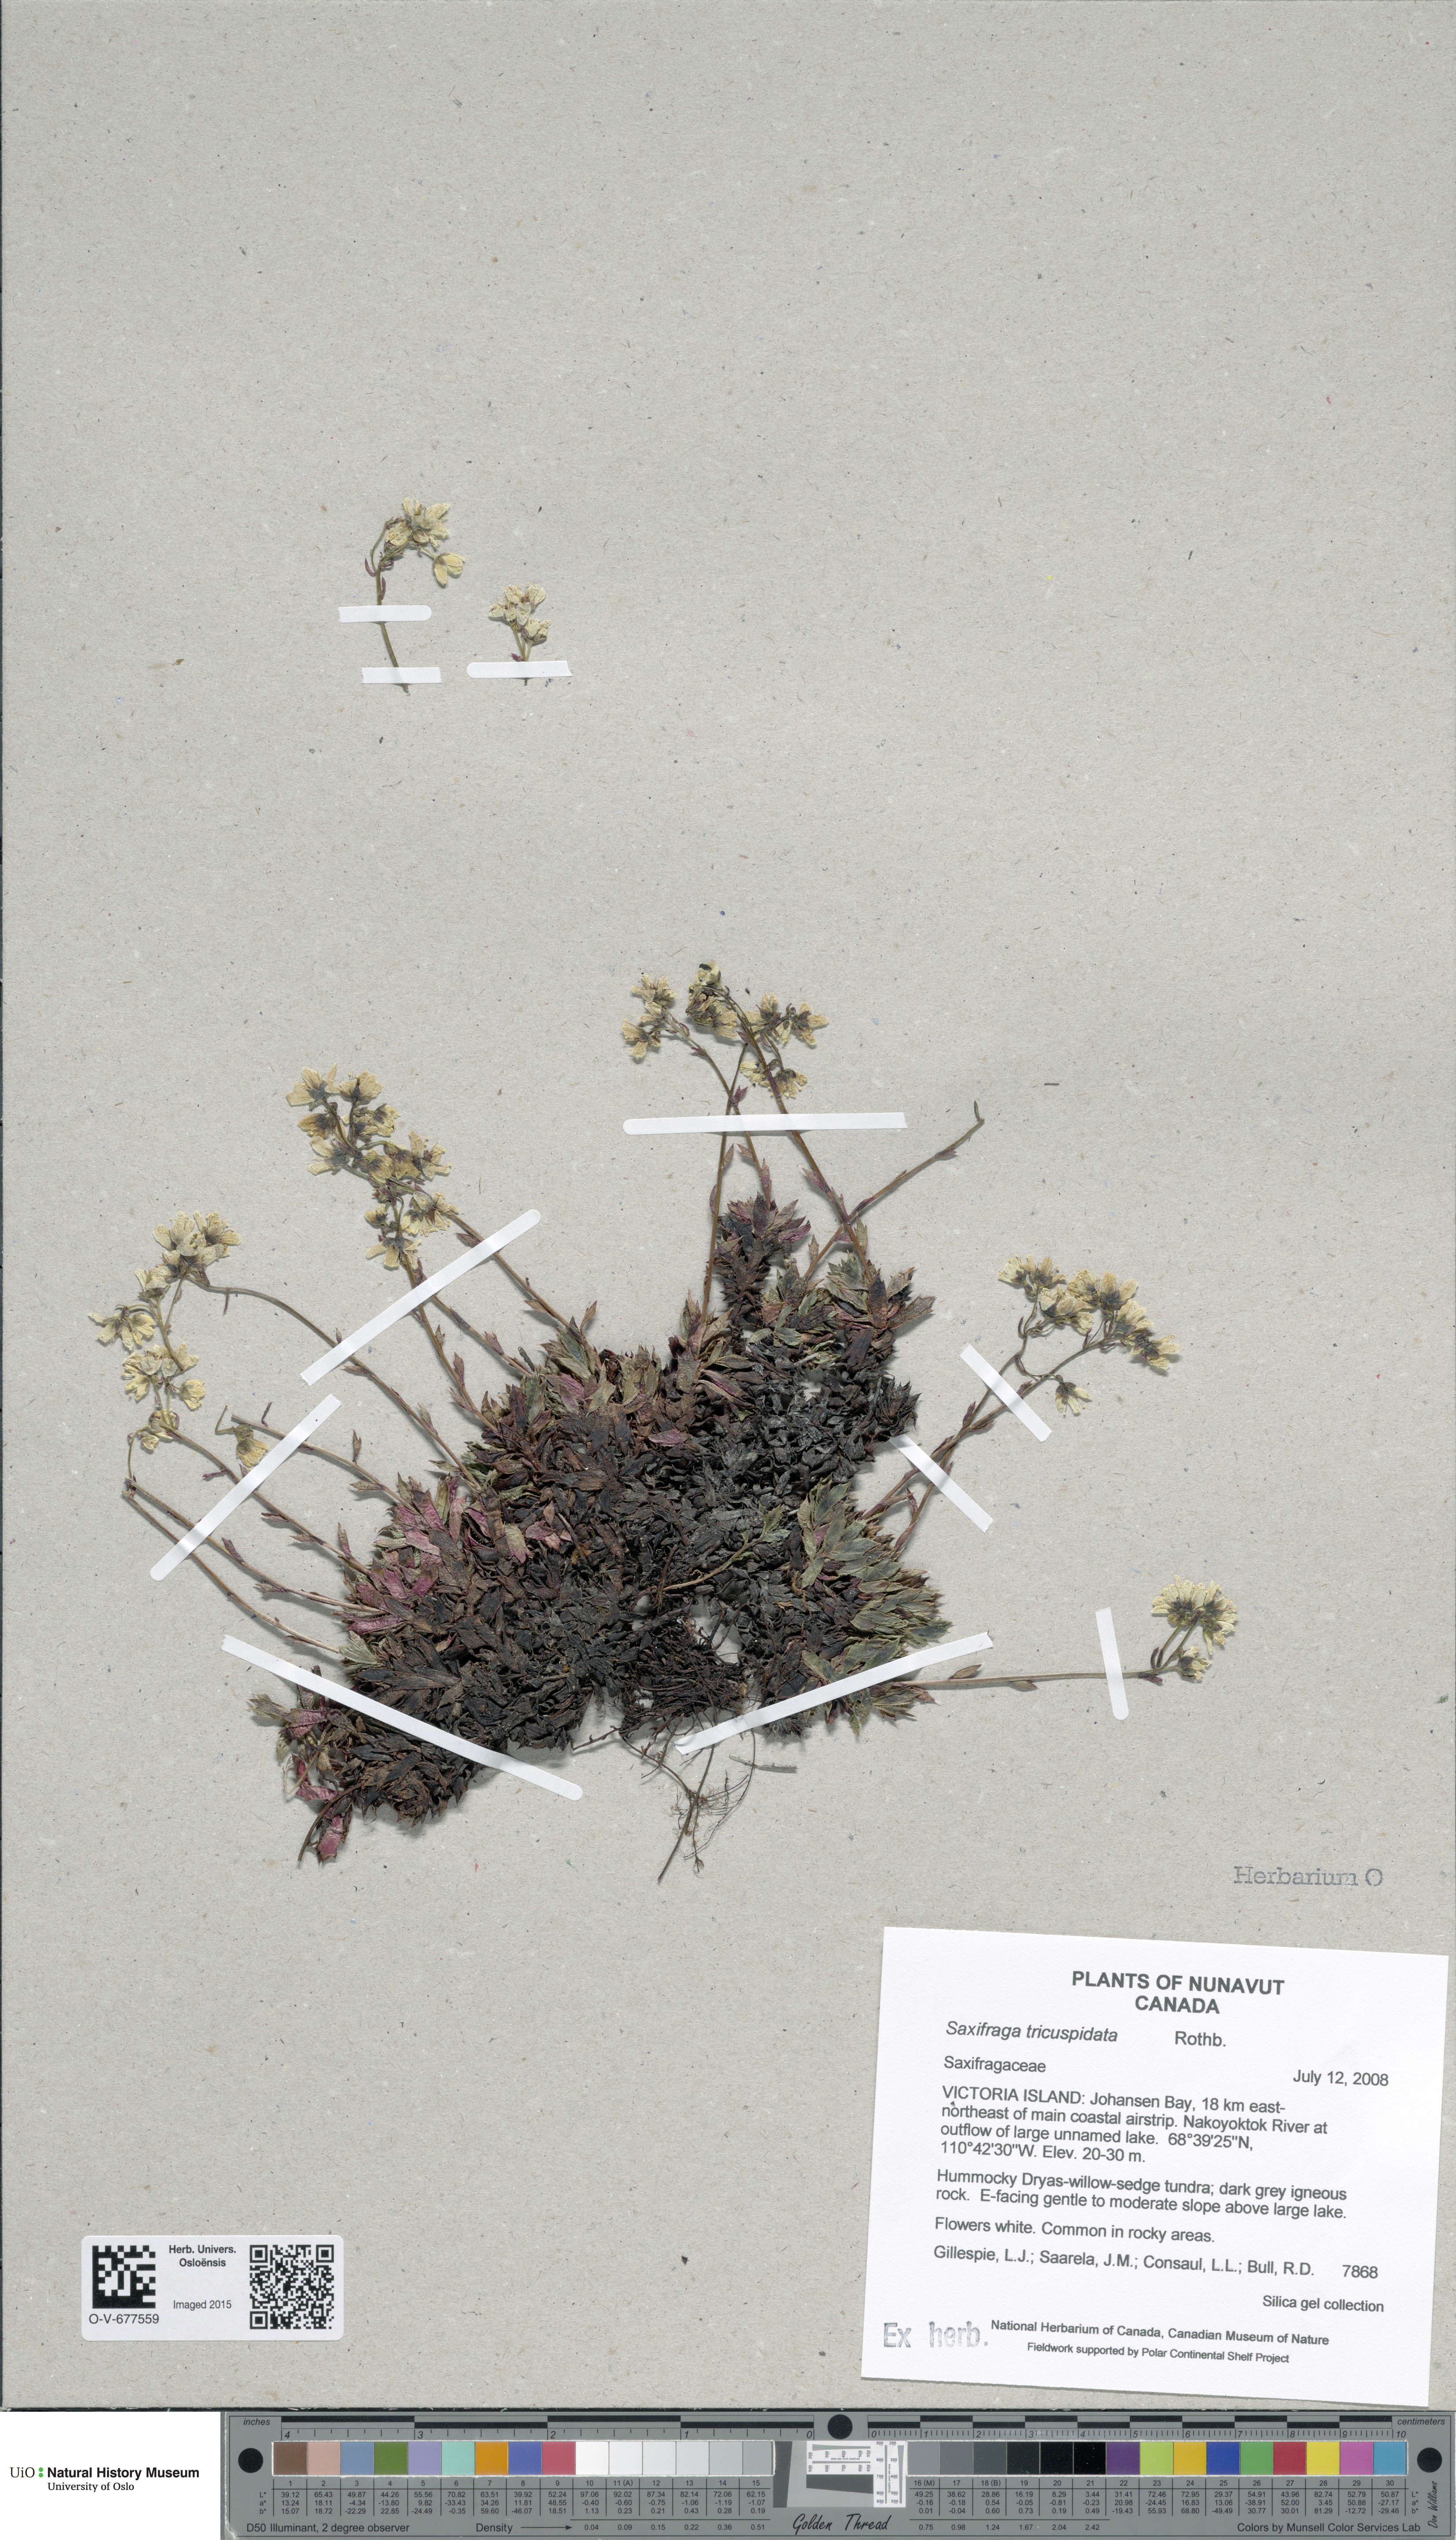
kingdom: Plantae
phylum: Tracheophyta
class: Magnoliopsida
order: Saxifragales
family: Saxifragaceae
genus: Saxifraga
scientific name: Saxifraga tricuspidata
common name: Prickly saxifrage
